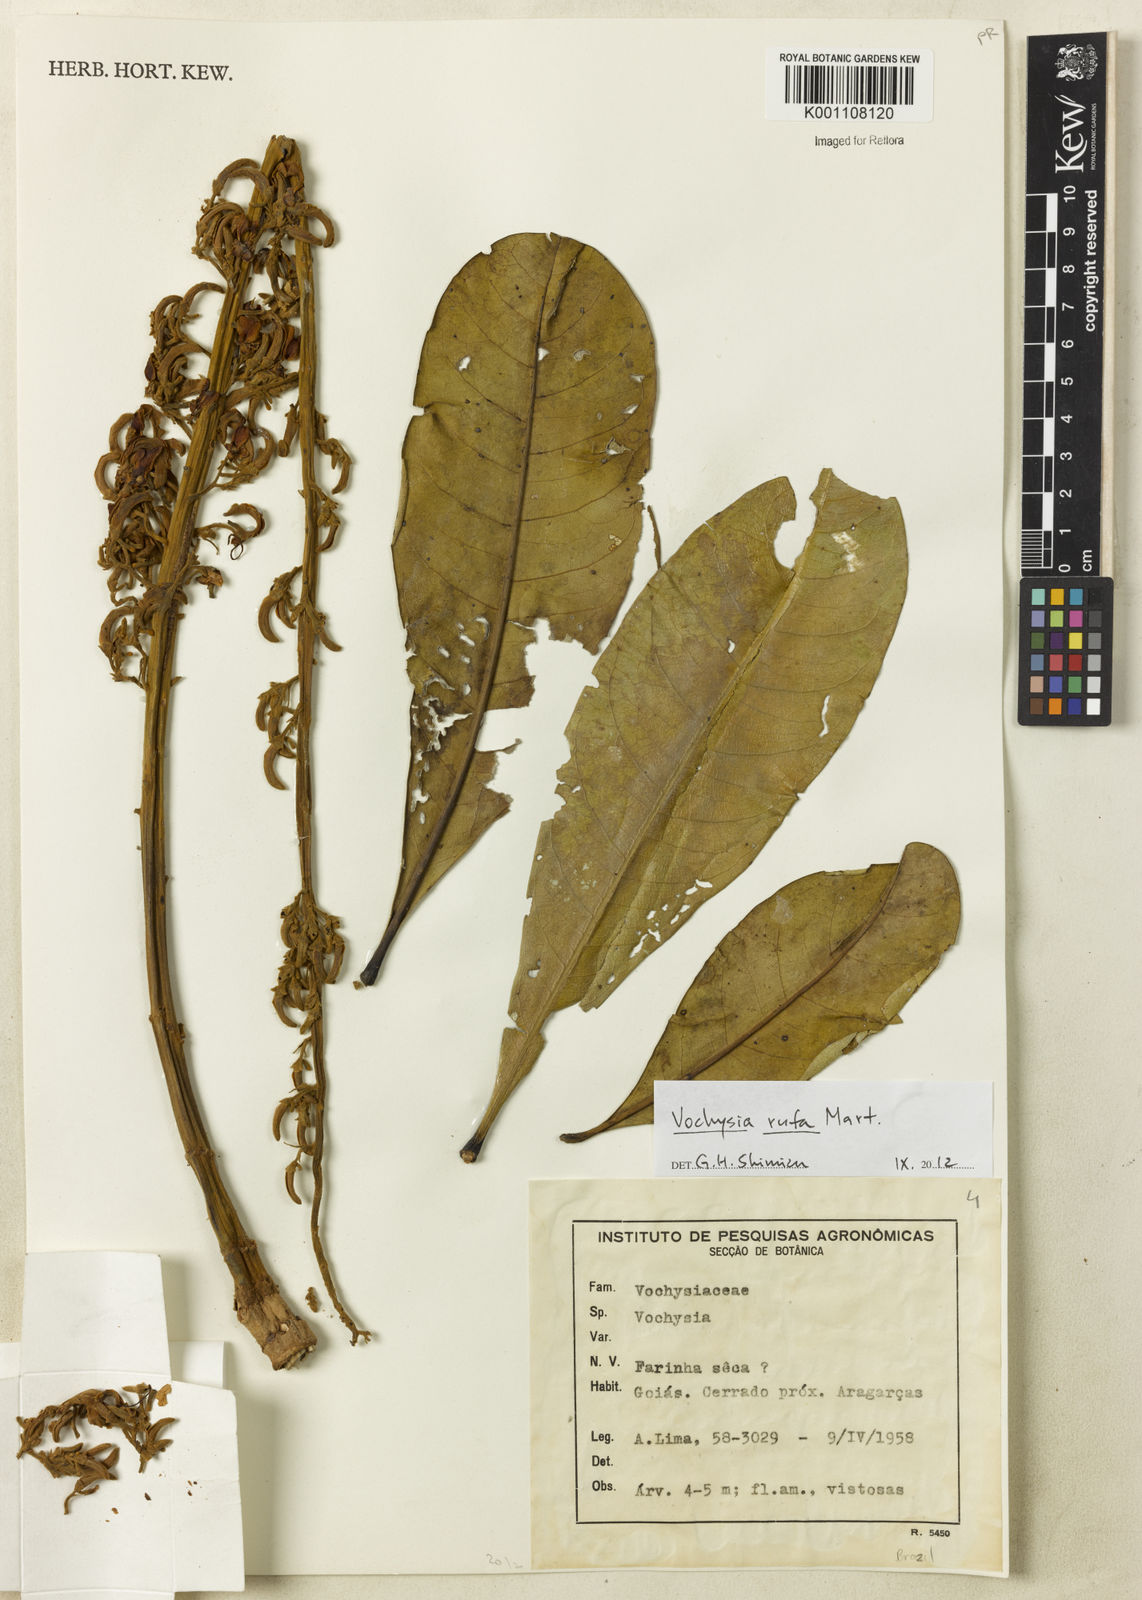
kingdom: Plantae
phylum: Tracheophyta
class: Magnoliopsida
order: Myrtales
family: Vochysiaceae
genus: Vochysia
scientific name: Vochysia rufa
